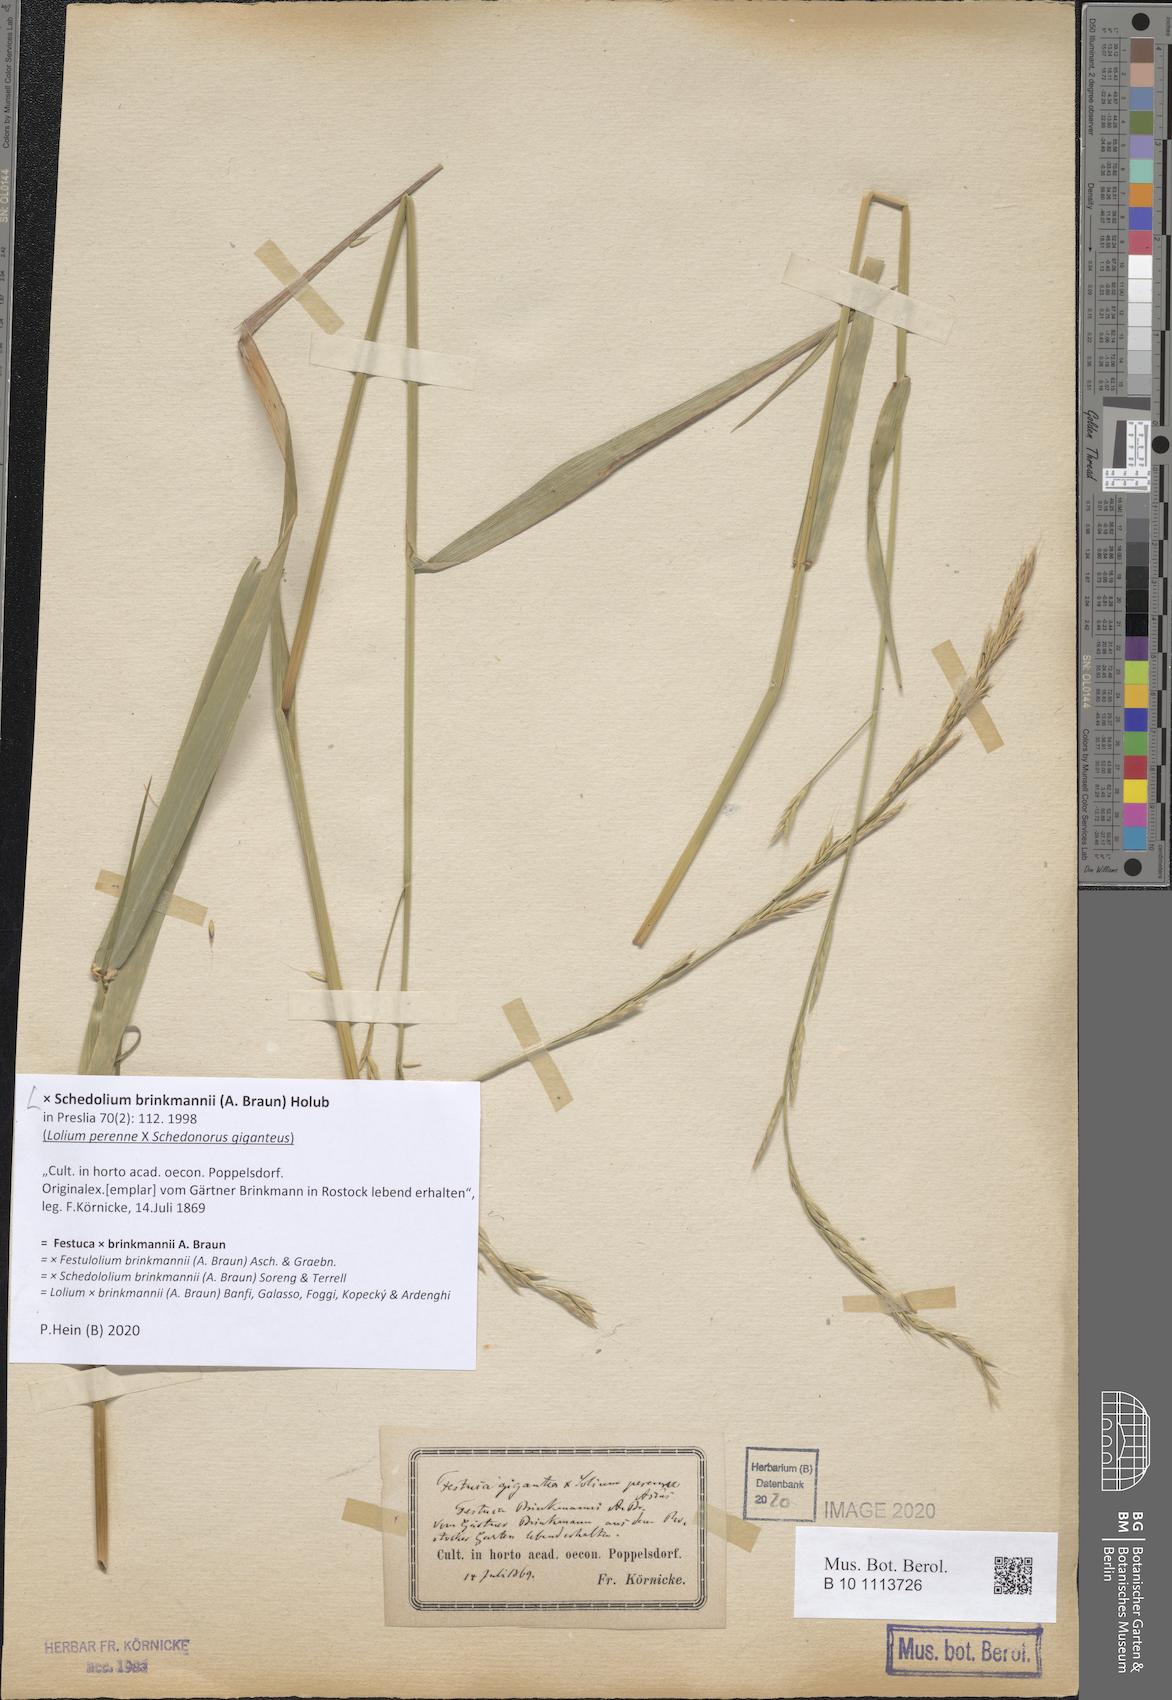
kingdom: Plantae
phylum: Tracheophyta
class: Liliopsida
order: Poales
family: Poaceae
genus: Lolium
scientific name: Lolium brinkmannii
